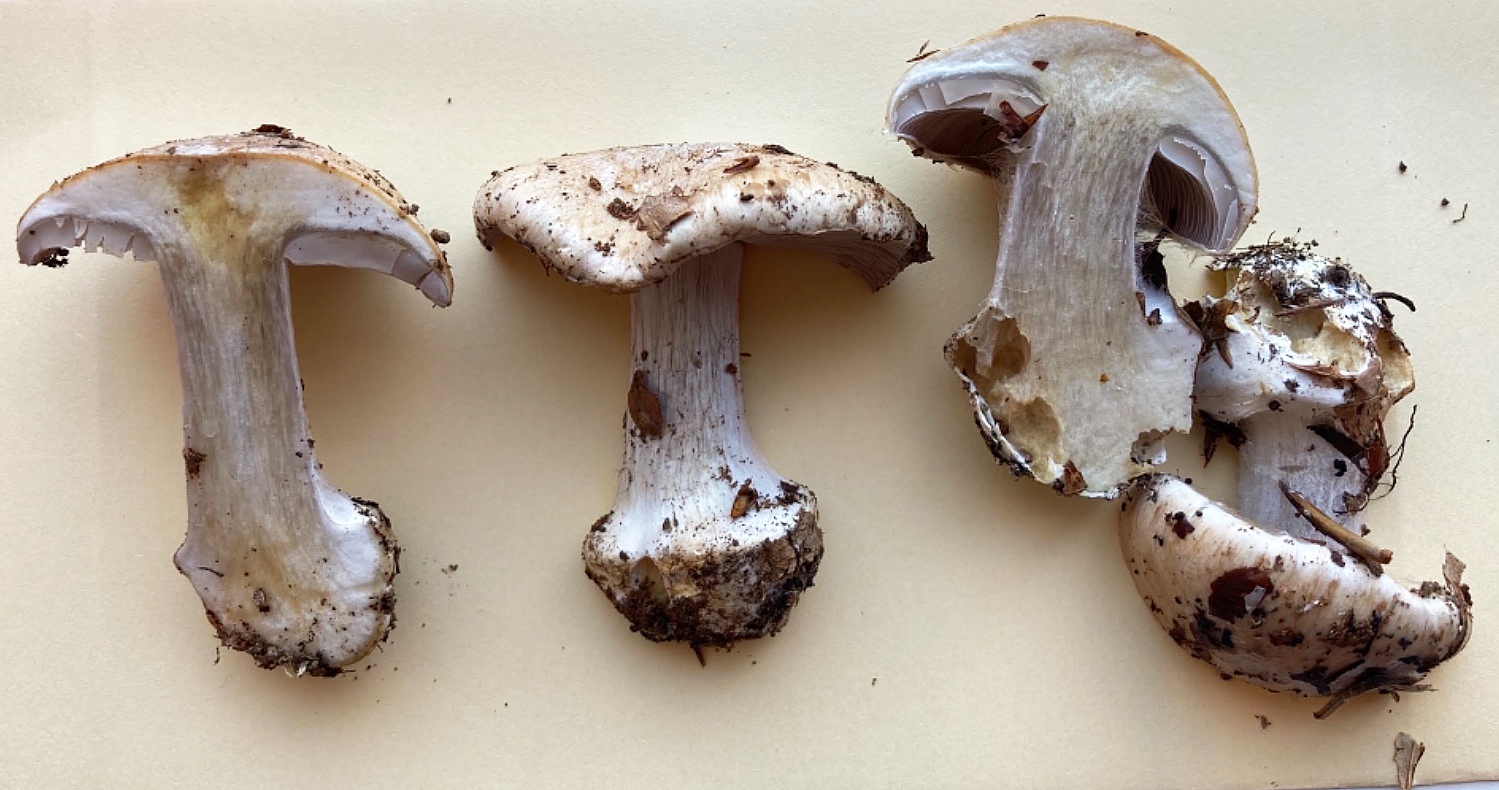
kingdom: Fungi
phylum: Basidiomycota
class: Agaricomycetes
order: Agaricales
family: Cortinariaceae
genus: Cortinarius
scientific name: Cortinarius caesiostramineus
